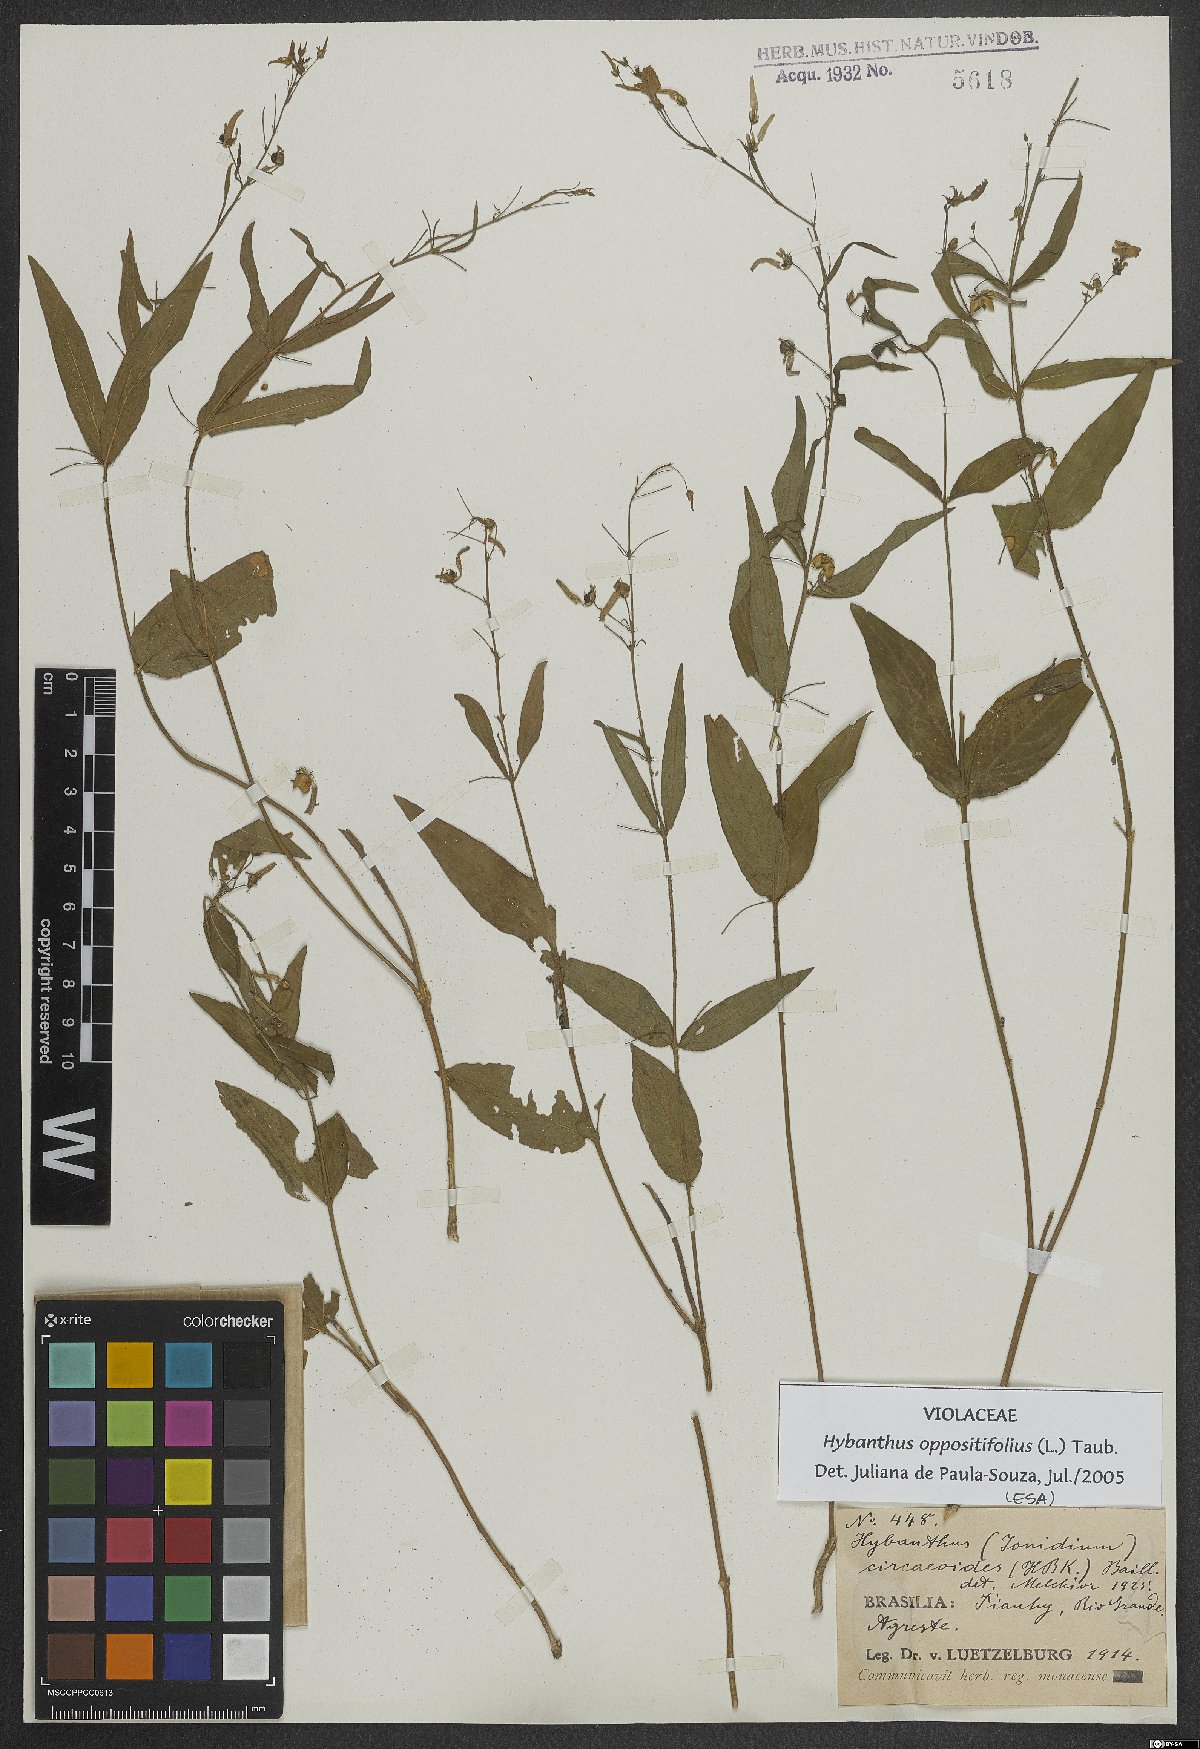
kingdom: Plantae
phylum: Tracheophyta
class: Magnoliopsida
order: Malpighiales
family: Violaceae
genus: Pombalia
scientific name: Pombalia oppositifolia
